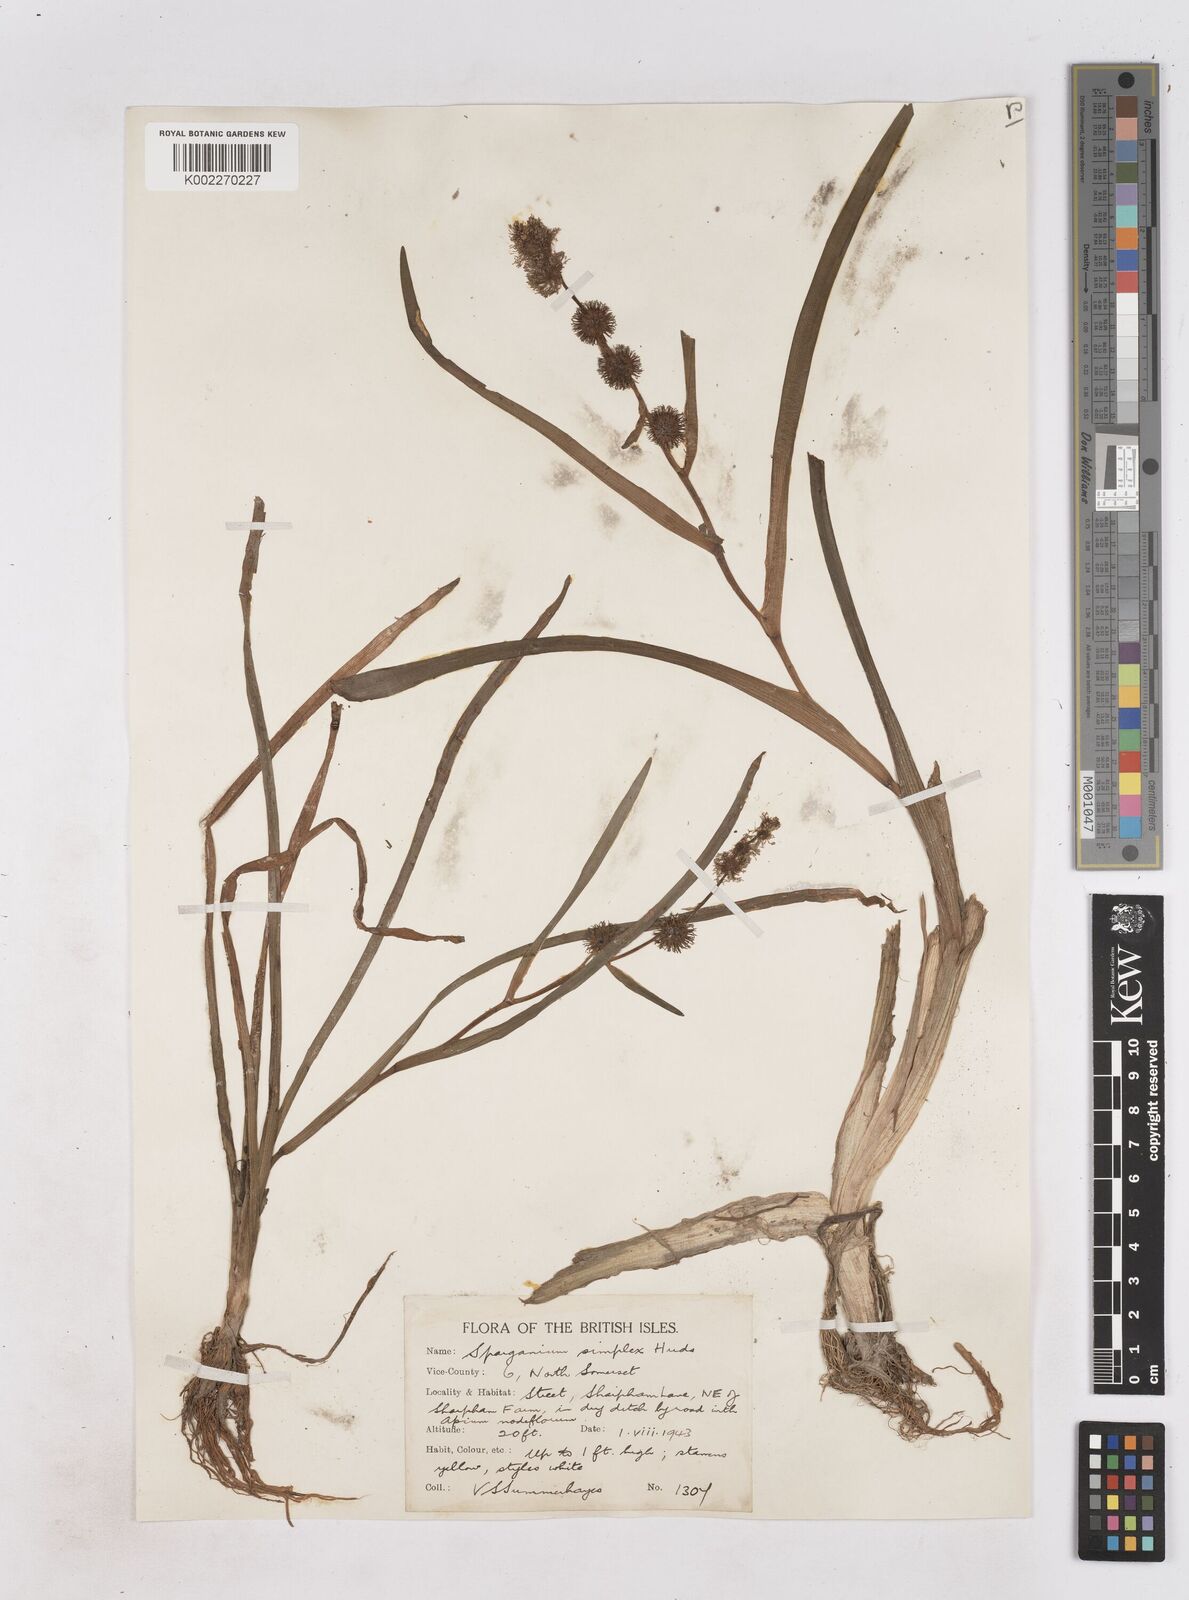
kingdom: Plantae
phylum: Tracheophyta
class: Liliopsida
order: Poales
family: Typhaceae
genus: Sparganium
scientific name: Sparganium emersum
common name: Unbranched bur-reed
